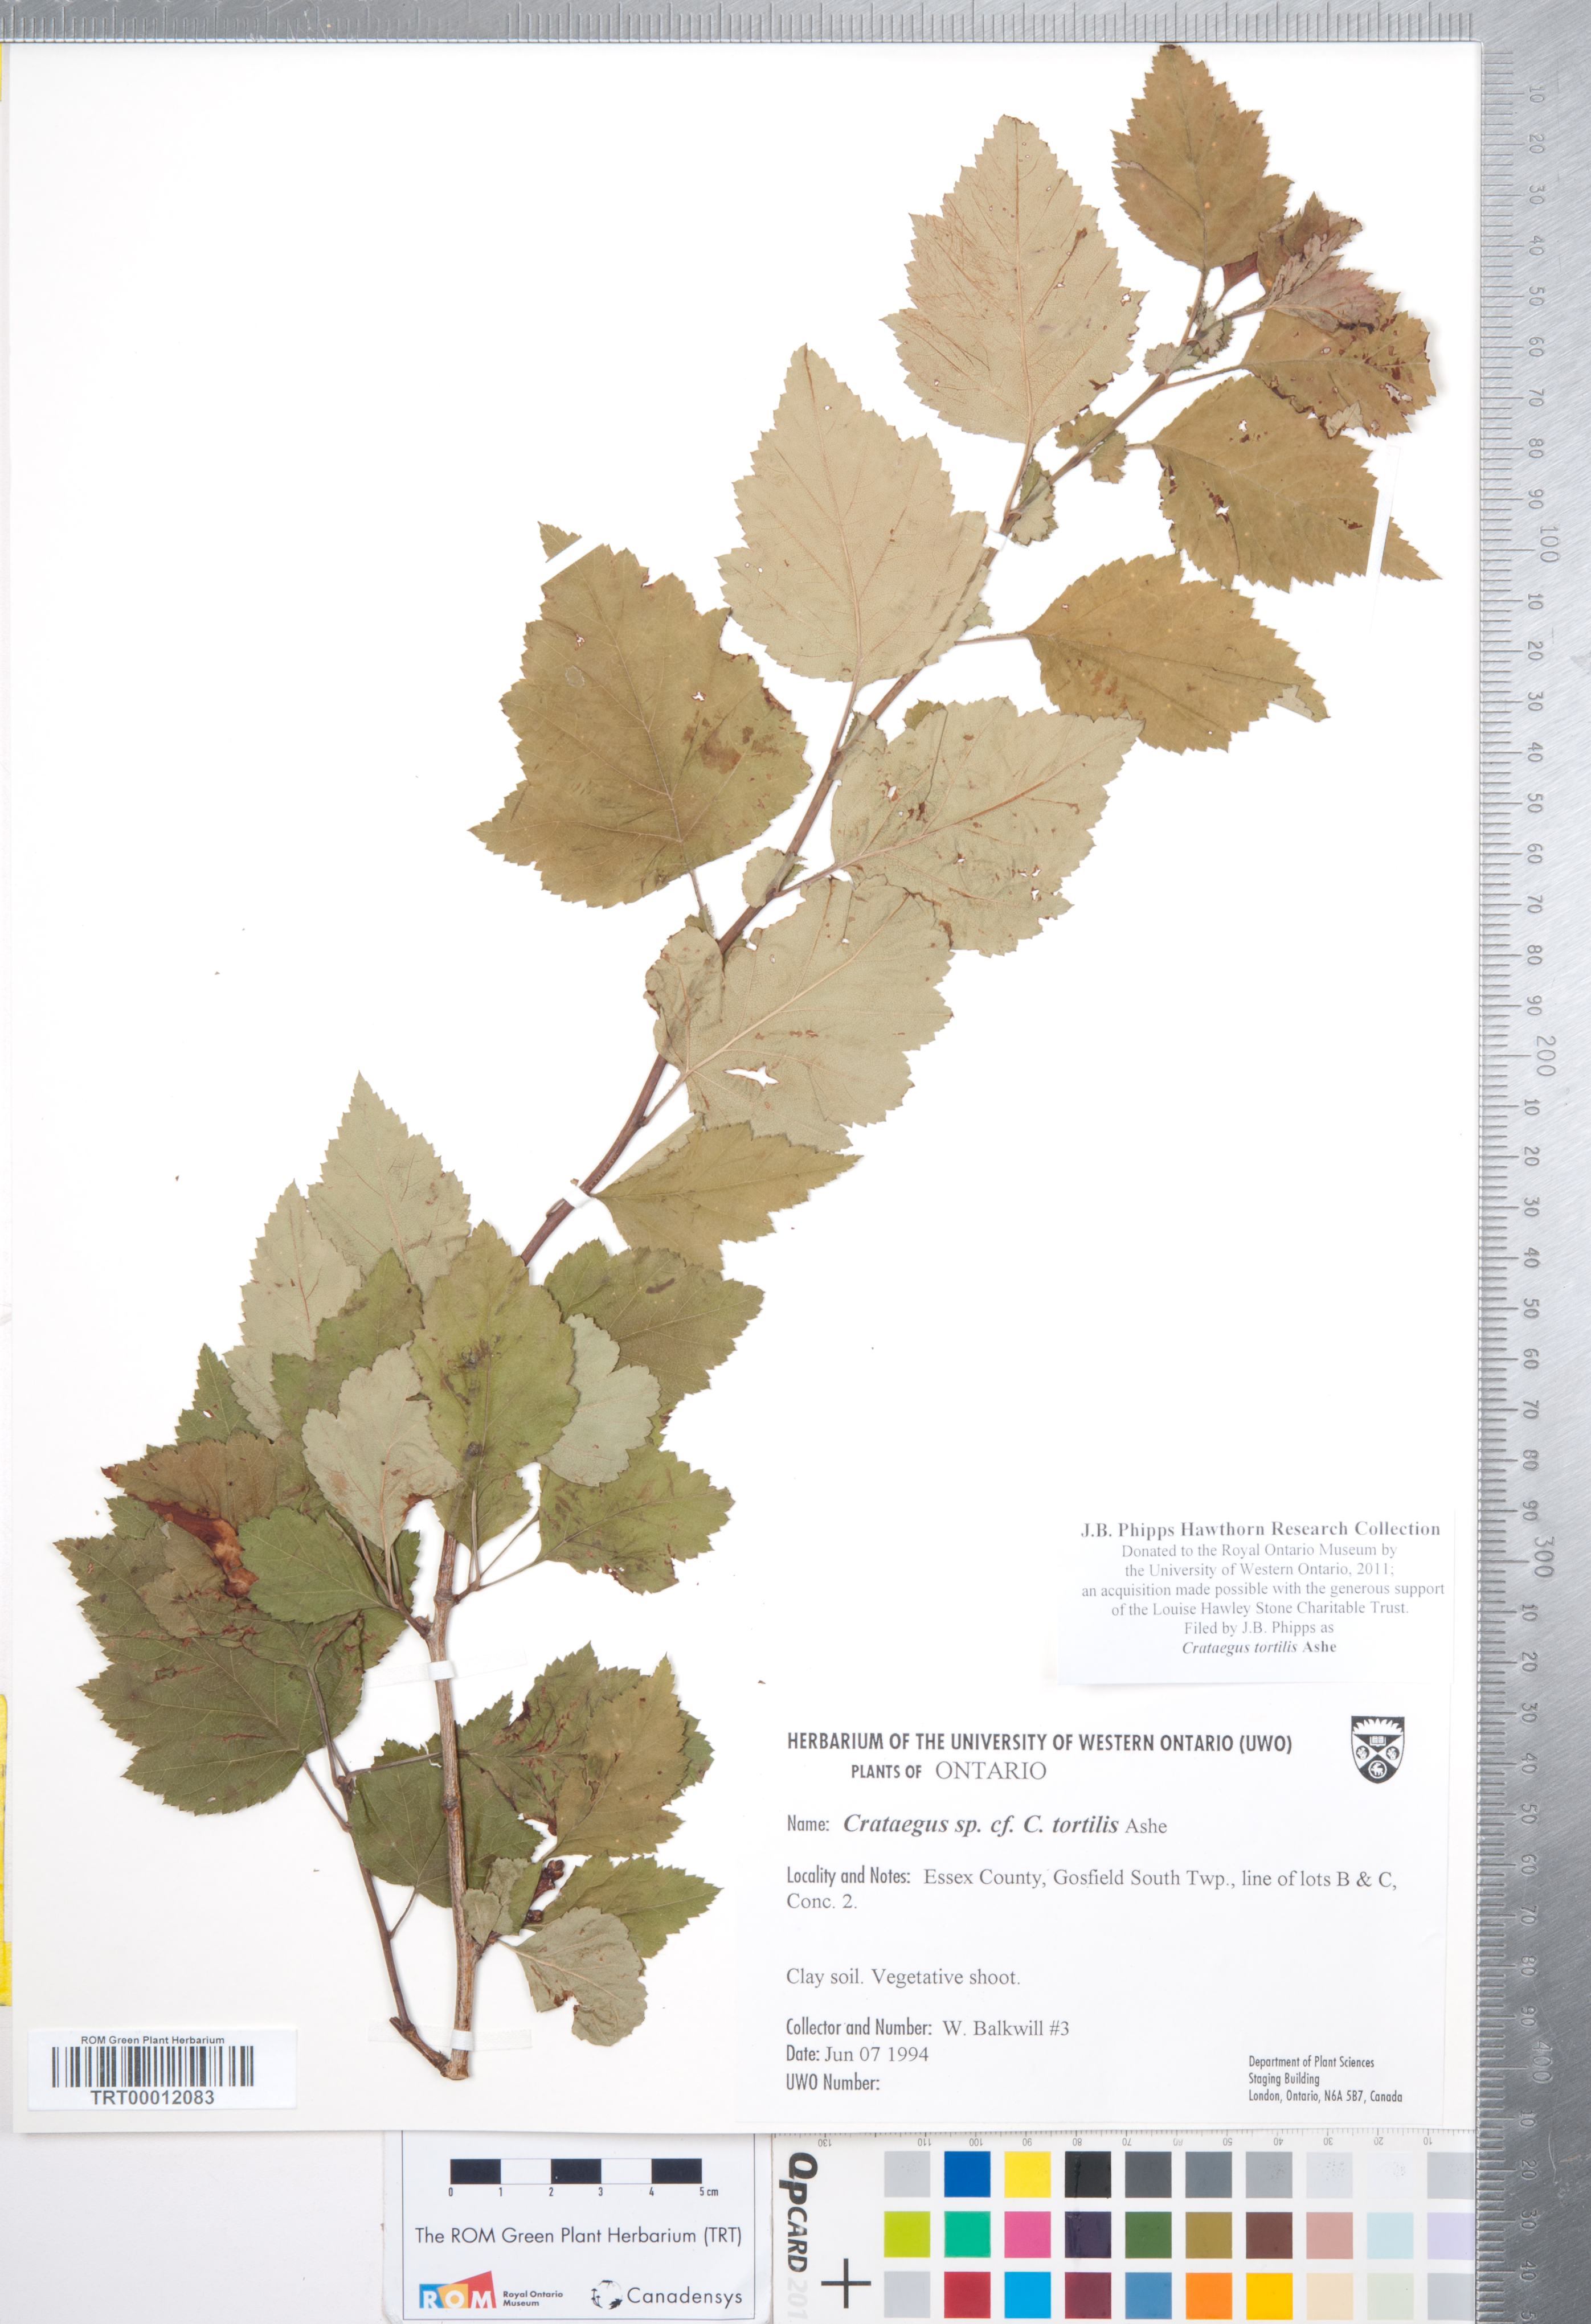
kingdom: Plantae
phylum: Tracheophyta
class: Magnoliopsida
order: Rosales
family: Rosaceae
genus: Crataegus
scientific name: Crataegus schuettei
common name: Schuette's hawthorn
